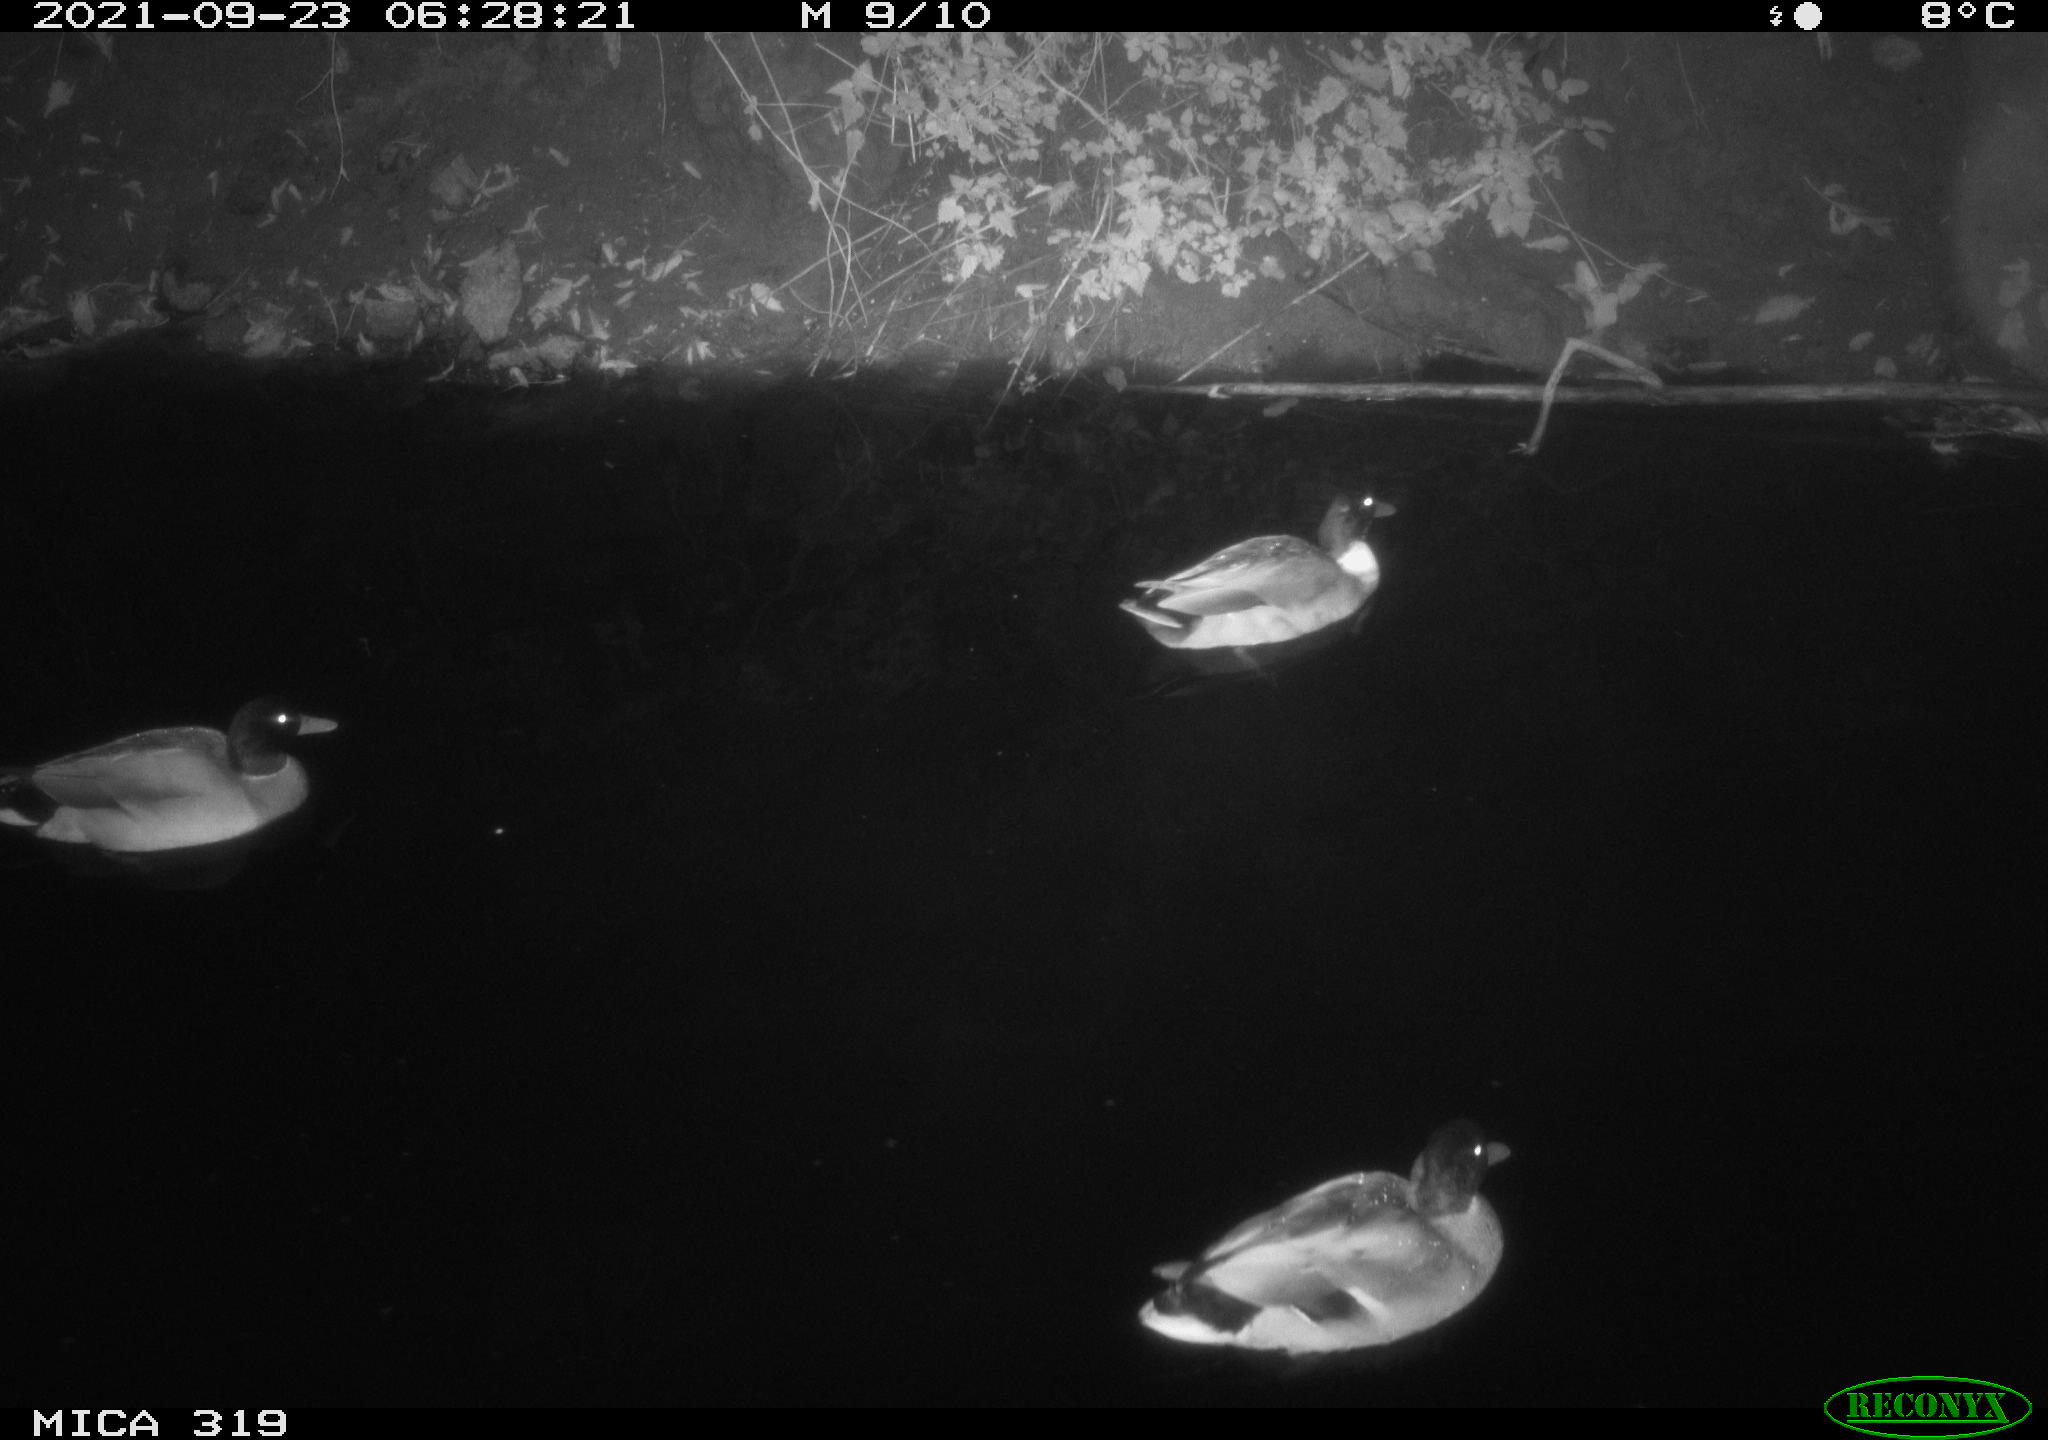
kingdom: Animalia
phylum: Chordata
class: Aves
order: Anseriformes
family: Anatidae
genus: Anas
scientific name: Anas platyrhynchos
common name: Mallard
